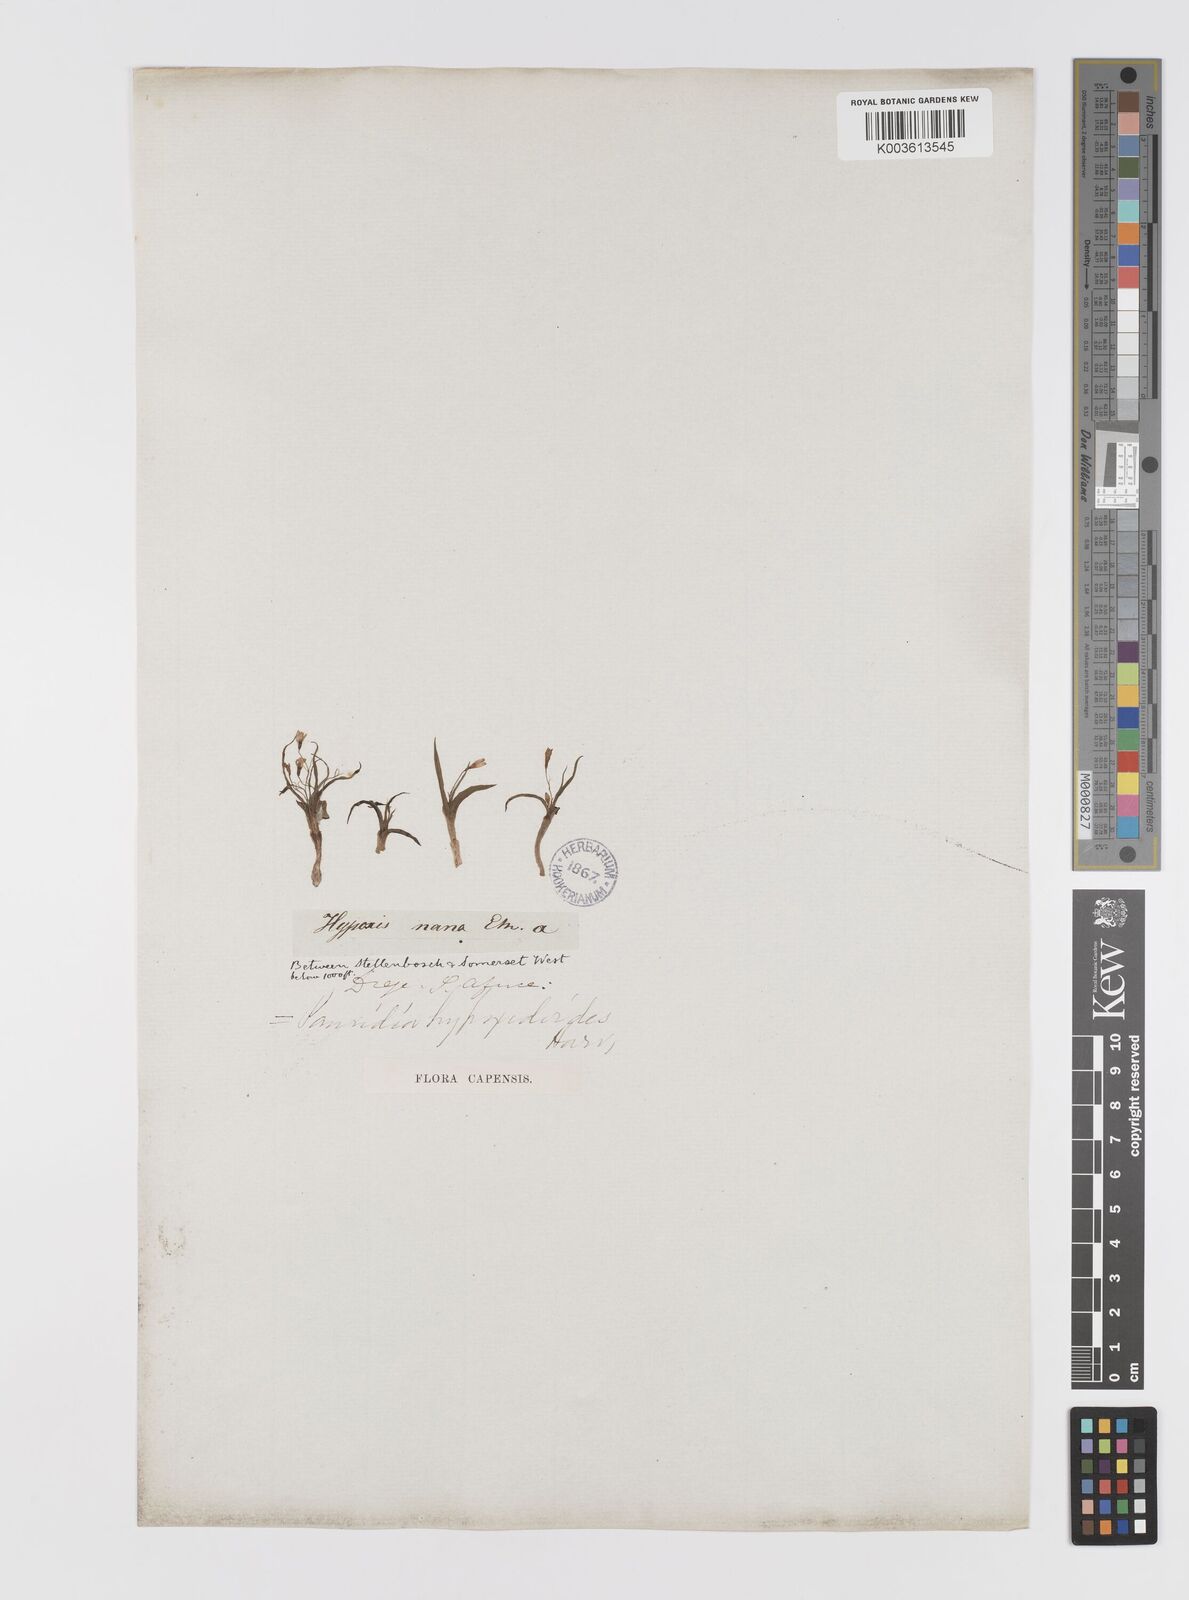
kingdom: Plantae
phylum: Tracheophyta
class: Liliopsida
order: Asparagales
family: Hypoxidaceae
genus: Pauridia
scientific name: Pauridia minuta
